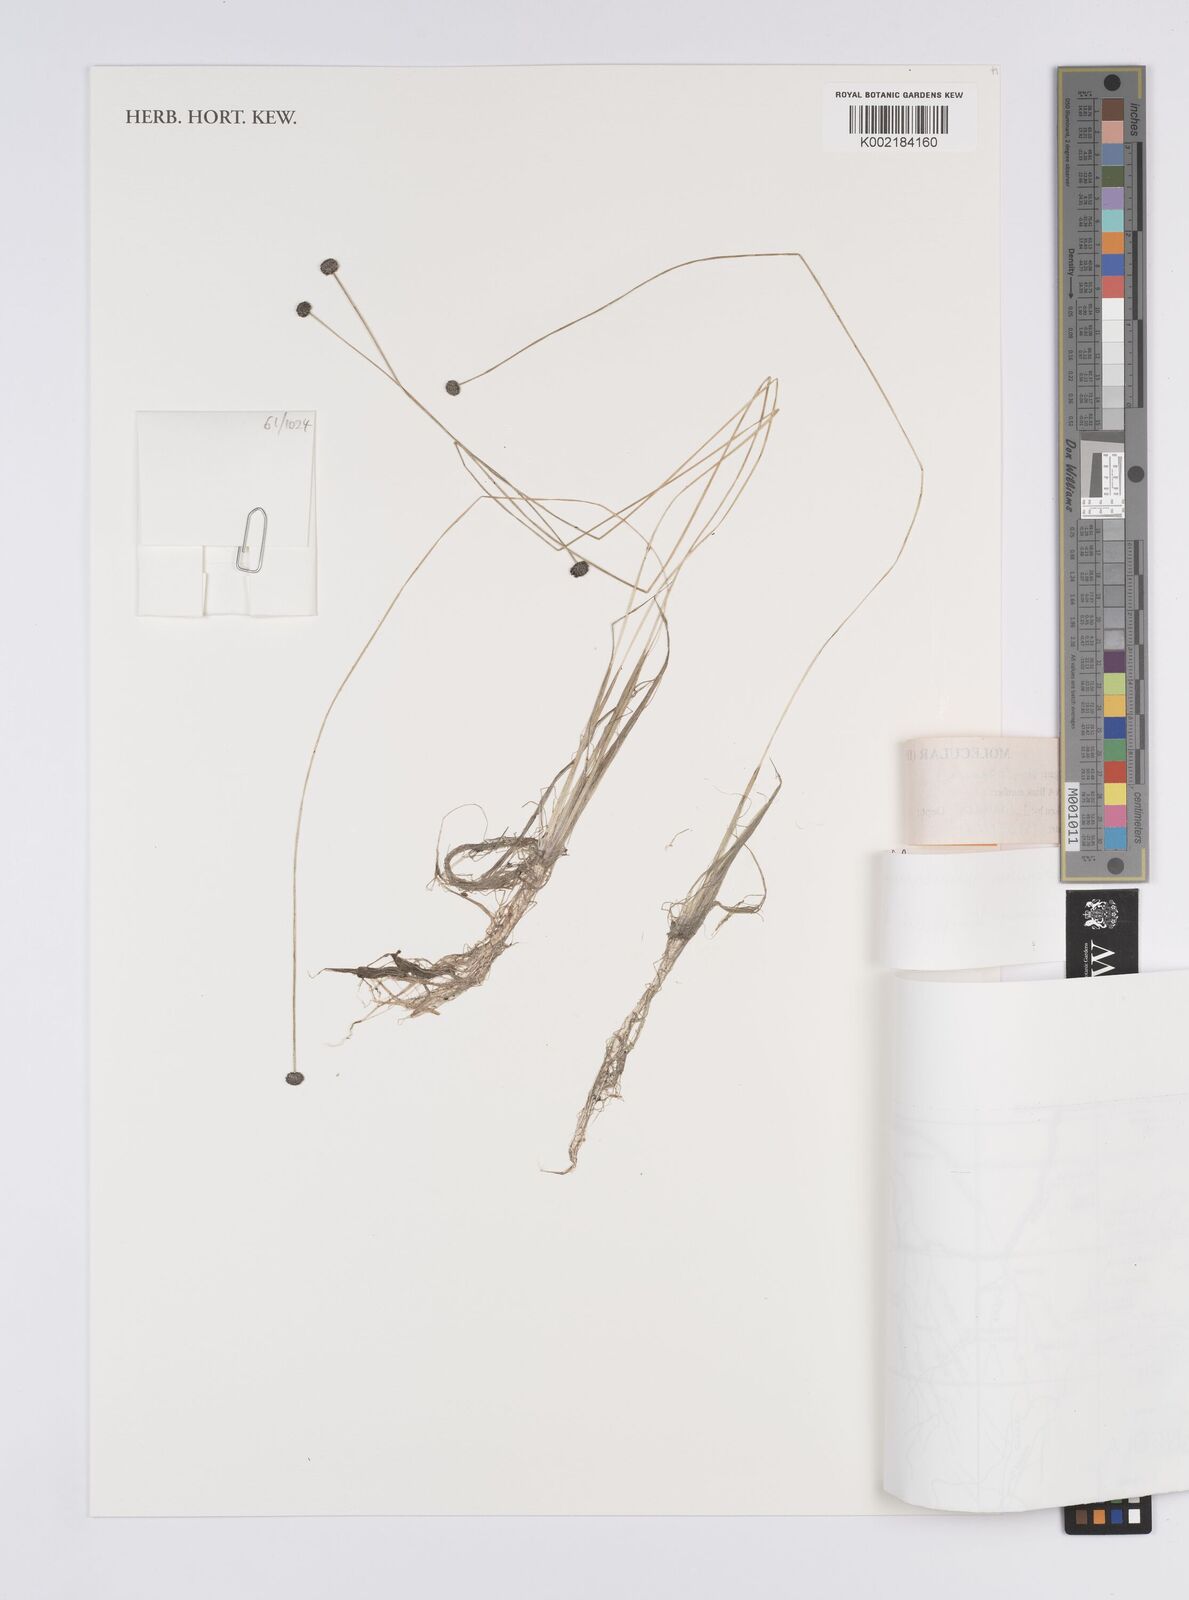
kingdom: Plantae
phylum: Tracheophyta
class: Liliopsida
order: Poales
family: Eriocaulaceae
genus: Eriocaulon
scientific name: Eriocaulon carsonii
